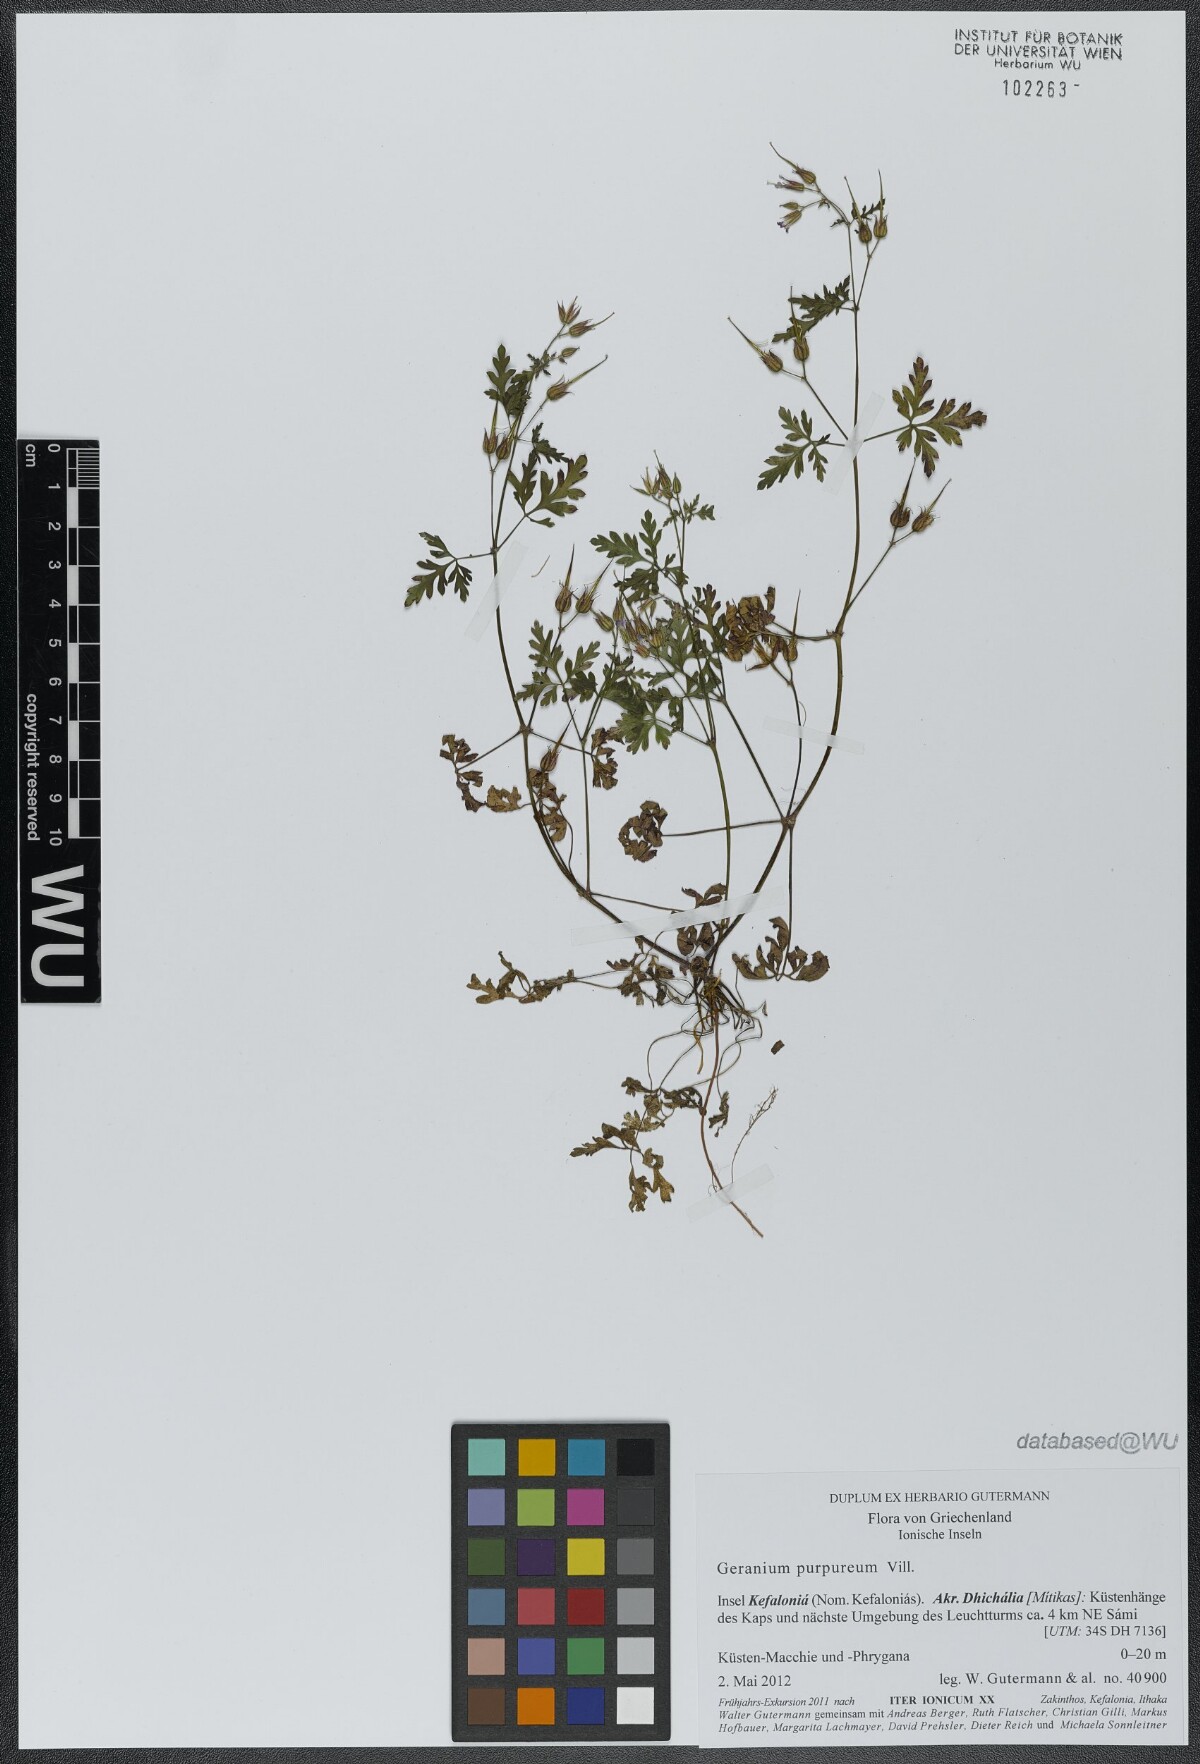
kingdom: Plantae
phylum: Tracheophyta
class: Magnoliopsida
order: Geraniales
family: Geraniaceae
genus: Geranium
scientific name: Geranium purpureum
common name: Little-robin
